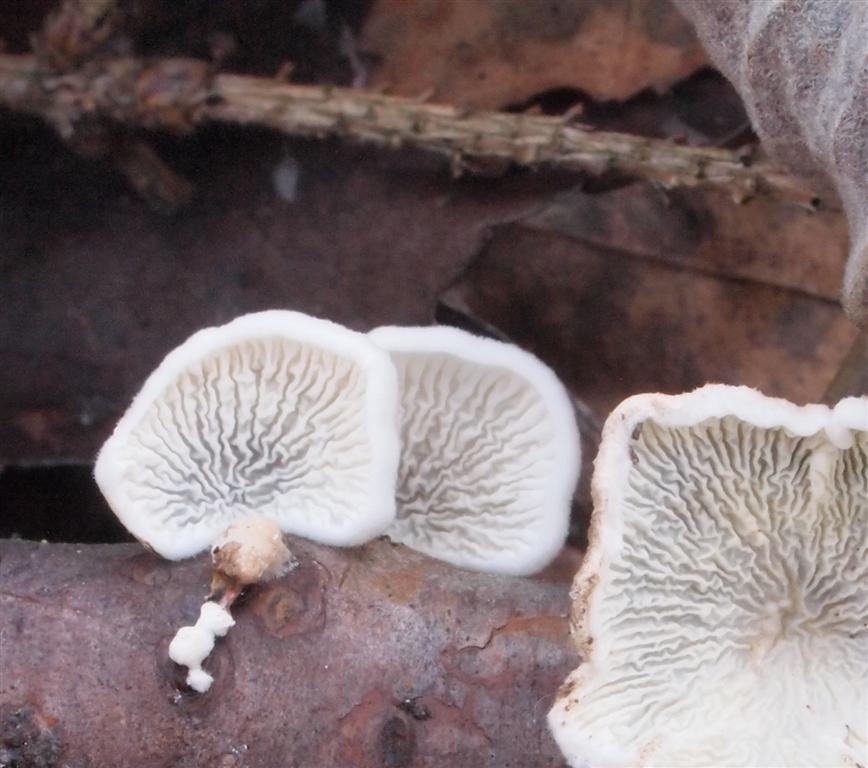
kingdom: Fungi
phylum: Basidiomycota
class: Agaricomycetes
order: Amylocorticiales
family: Amylocorticiaceae
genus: Plicaturopsis
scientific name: Plicaturopsis crispa
